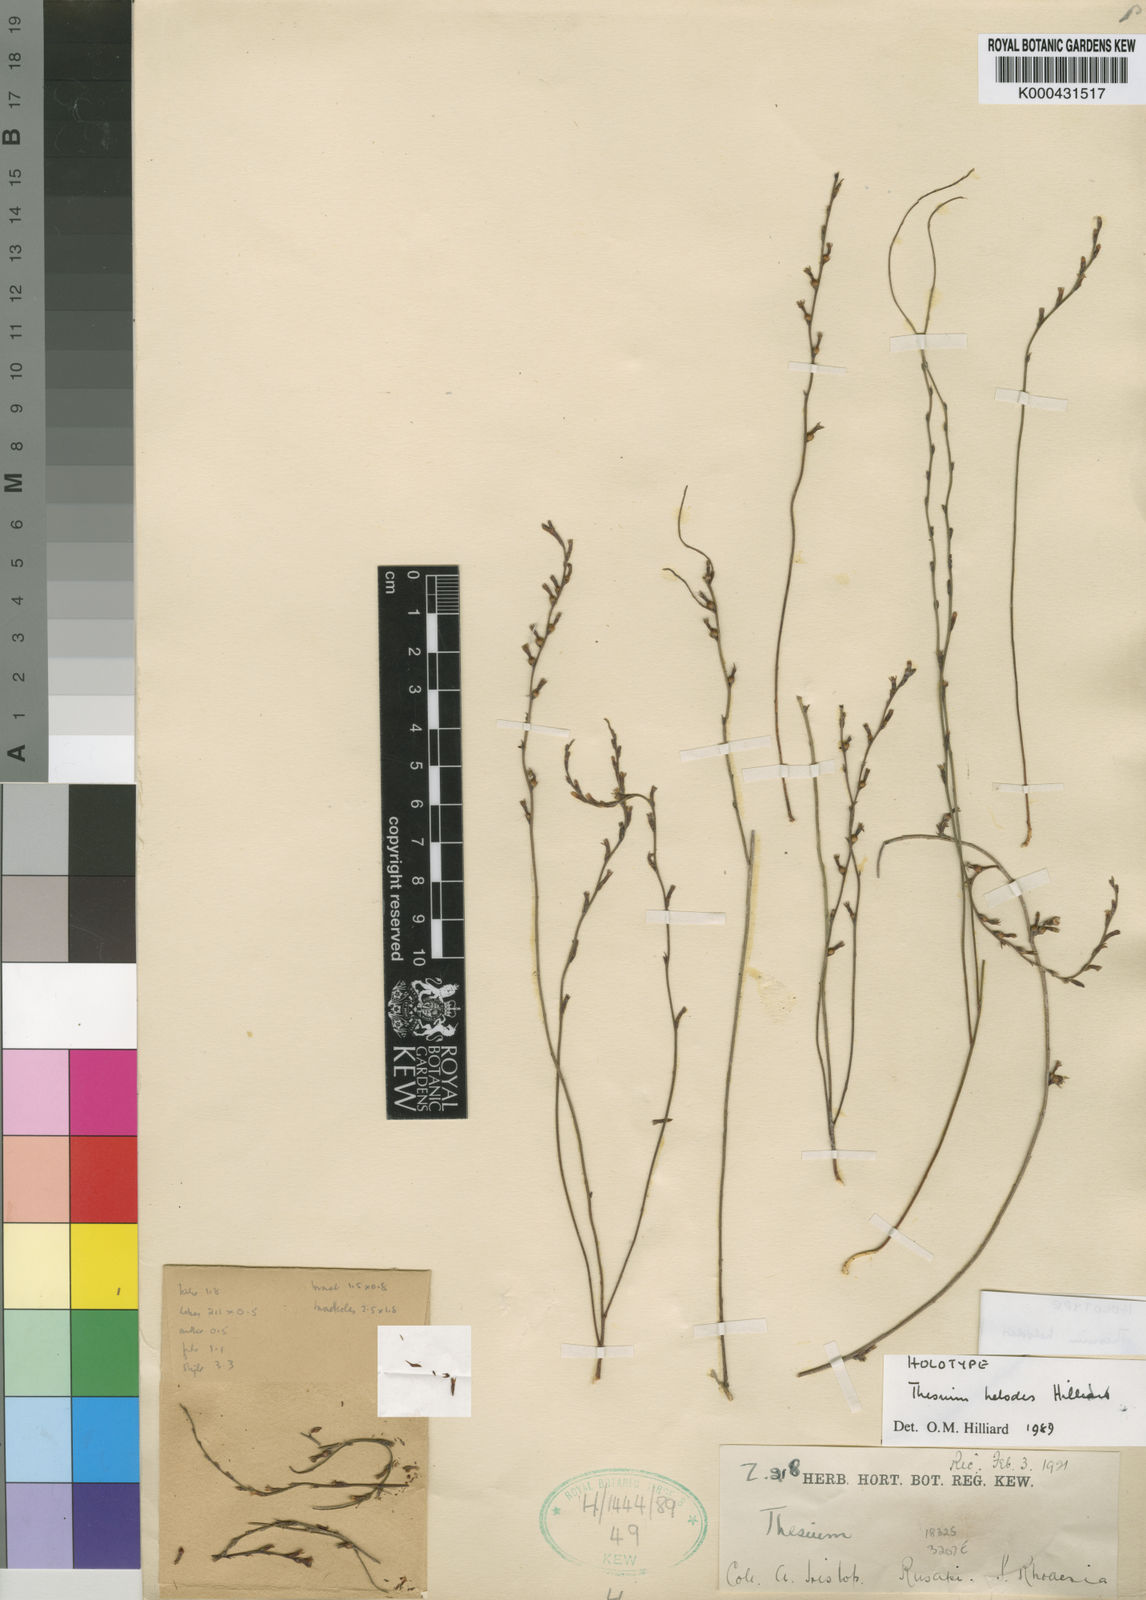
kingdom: Plantae
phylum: Tracheophyta
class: Magnoliopsida
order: Santalales
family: Thesiaceae
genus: Thesium
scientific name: Thesium helodes
